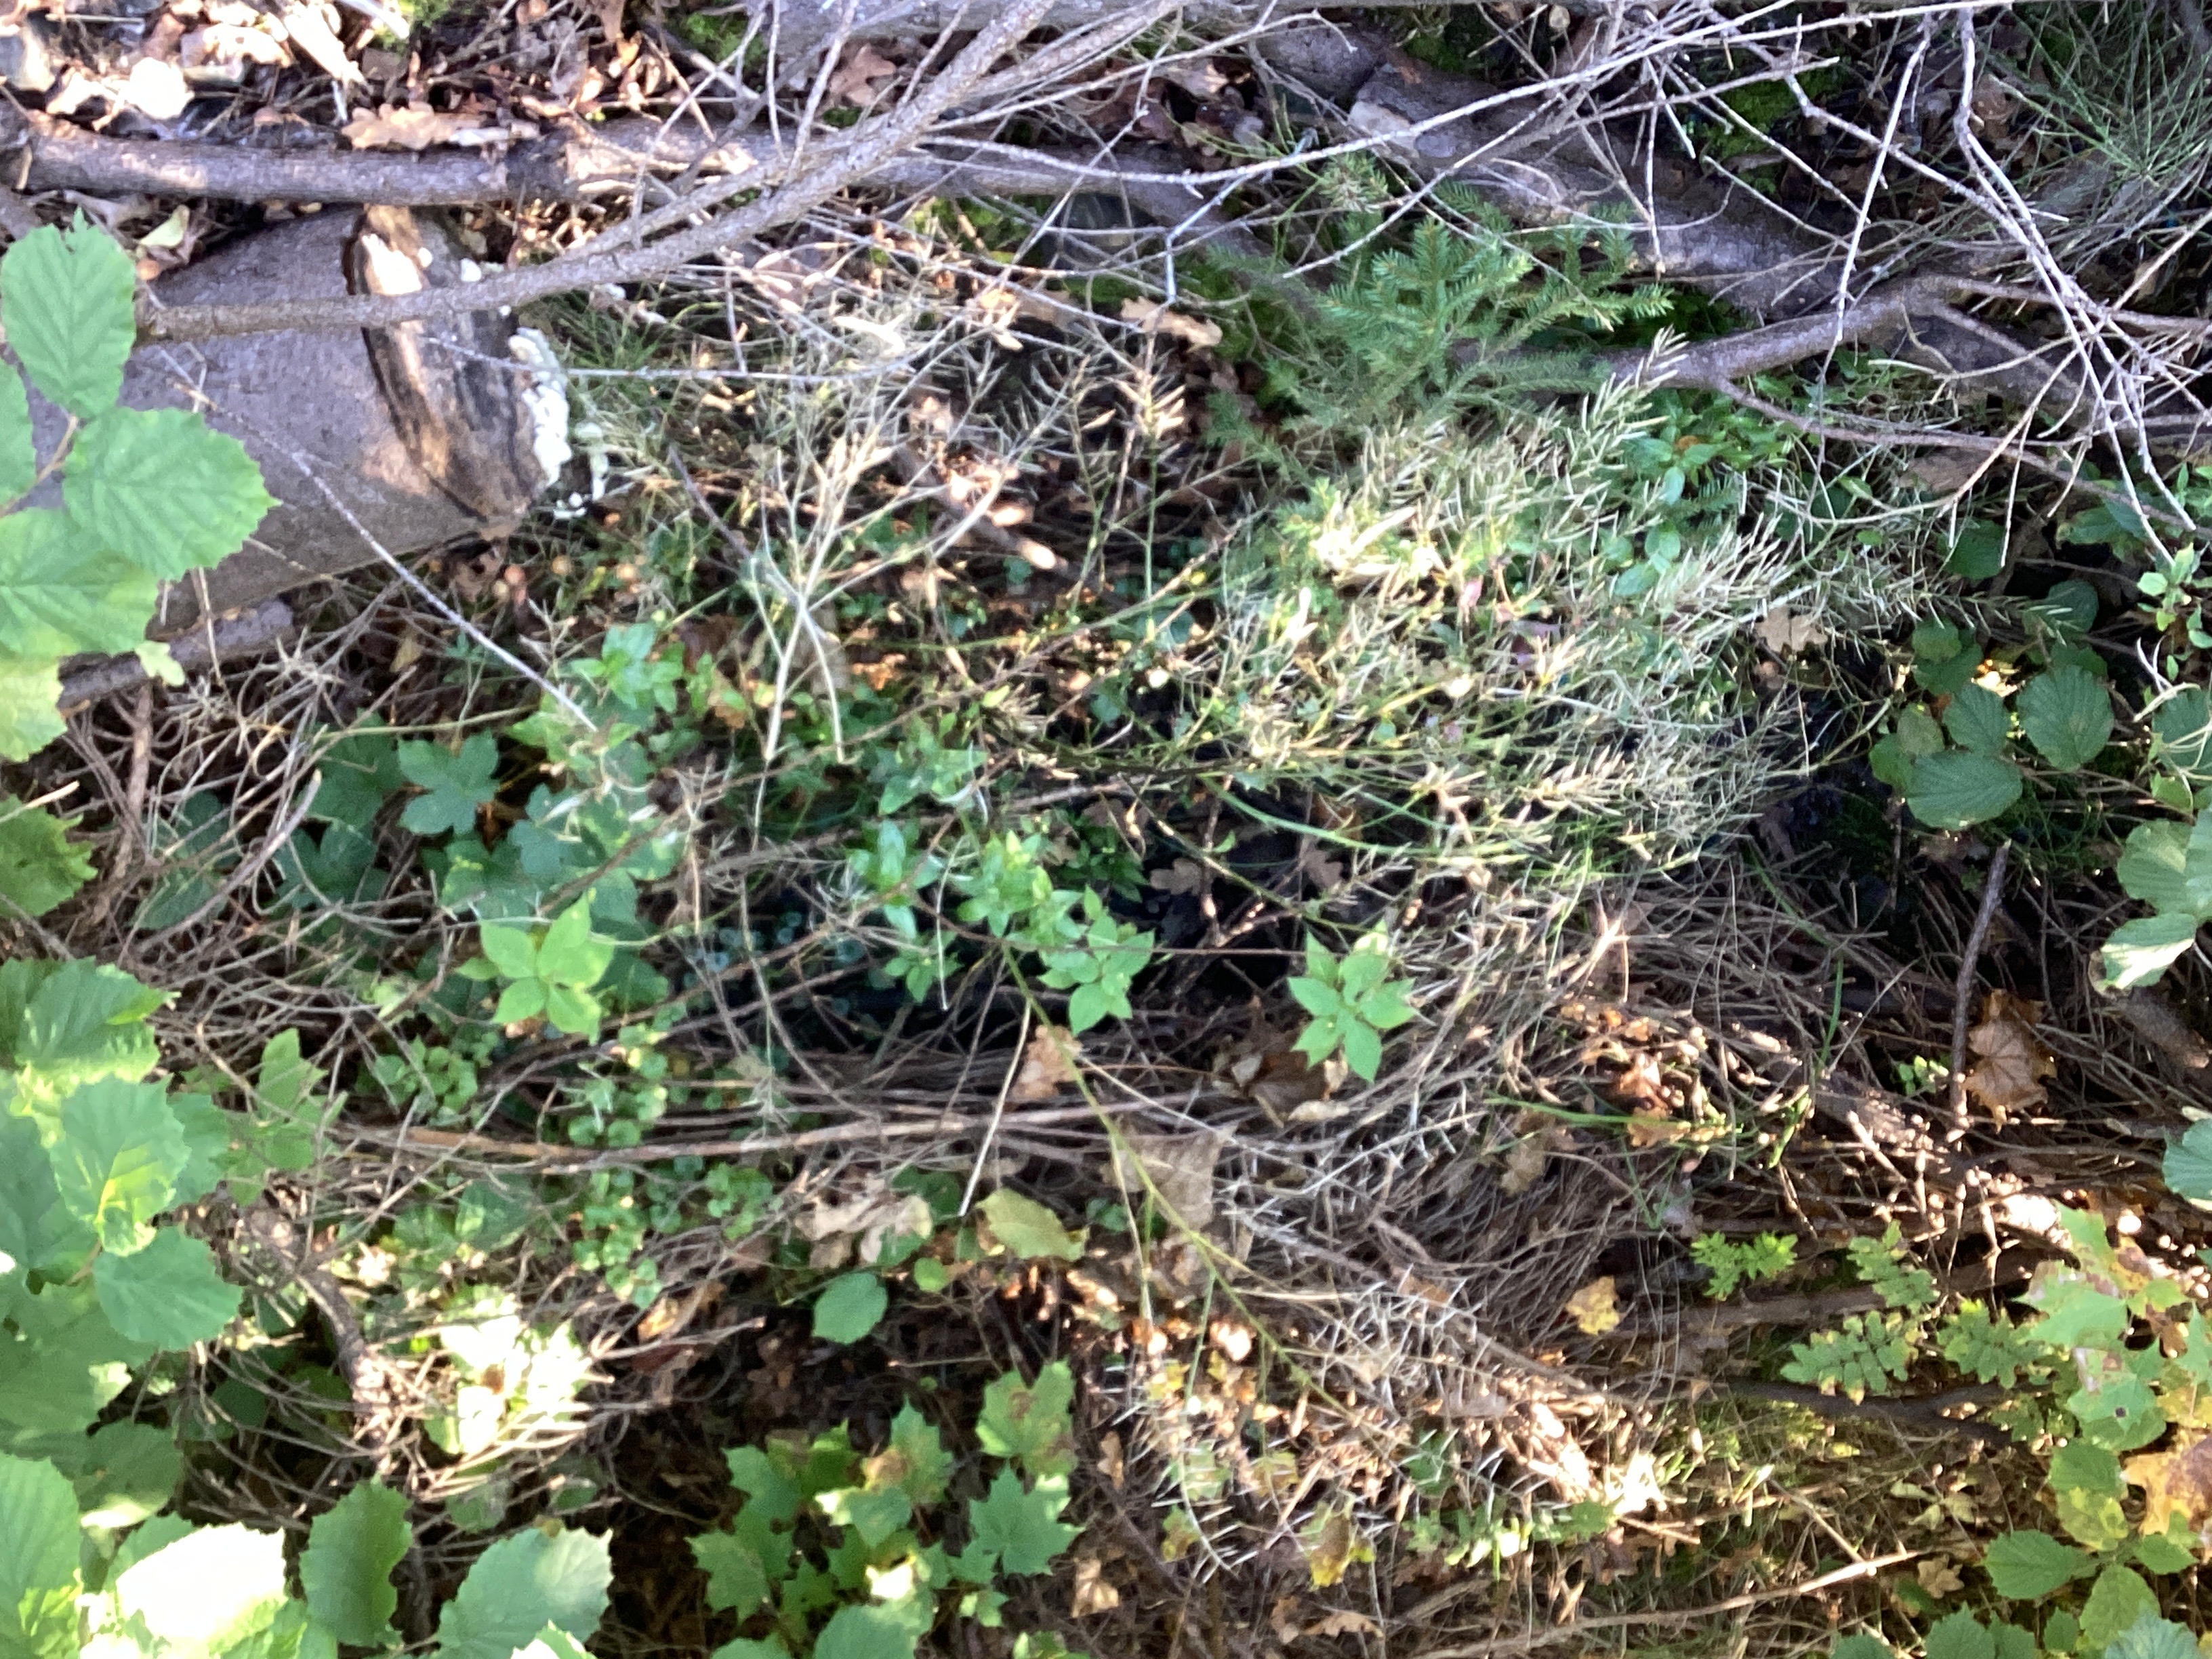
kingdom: Plantae
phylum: Tracheophyta
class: Magnoliopsida
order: Brassicales
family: Brassicaceae
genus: Barbarea
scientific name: Barbarea vulgaris
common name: vinterkarse
